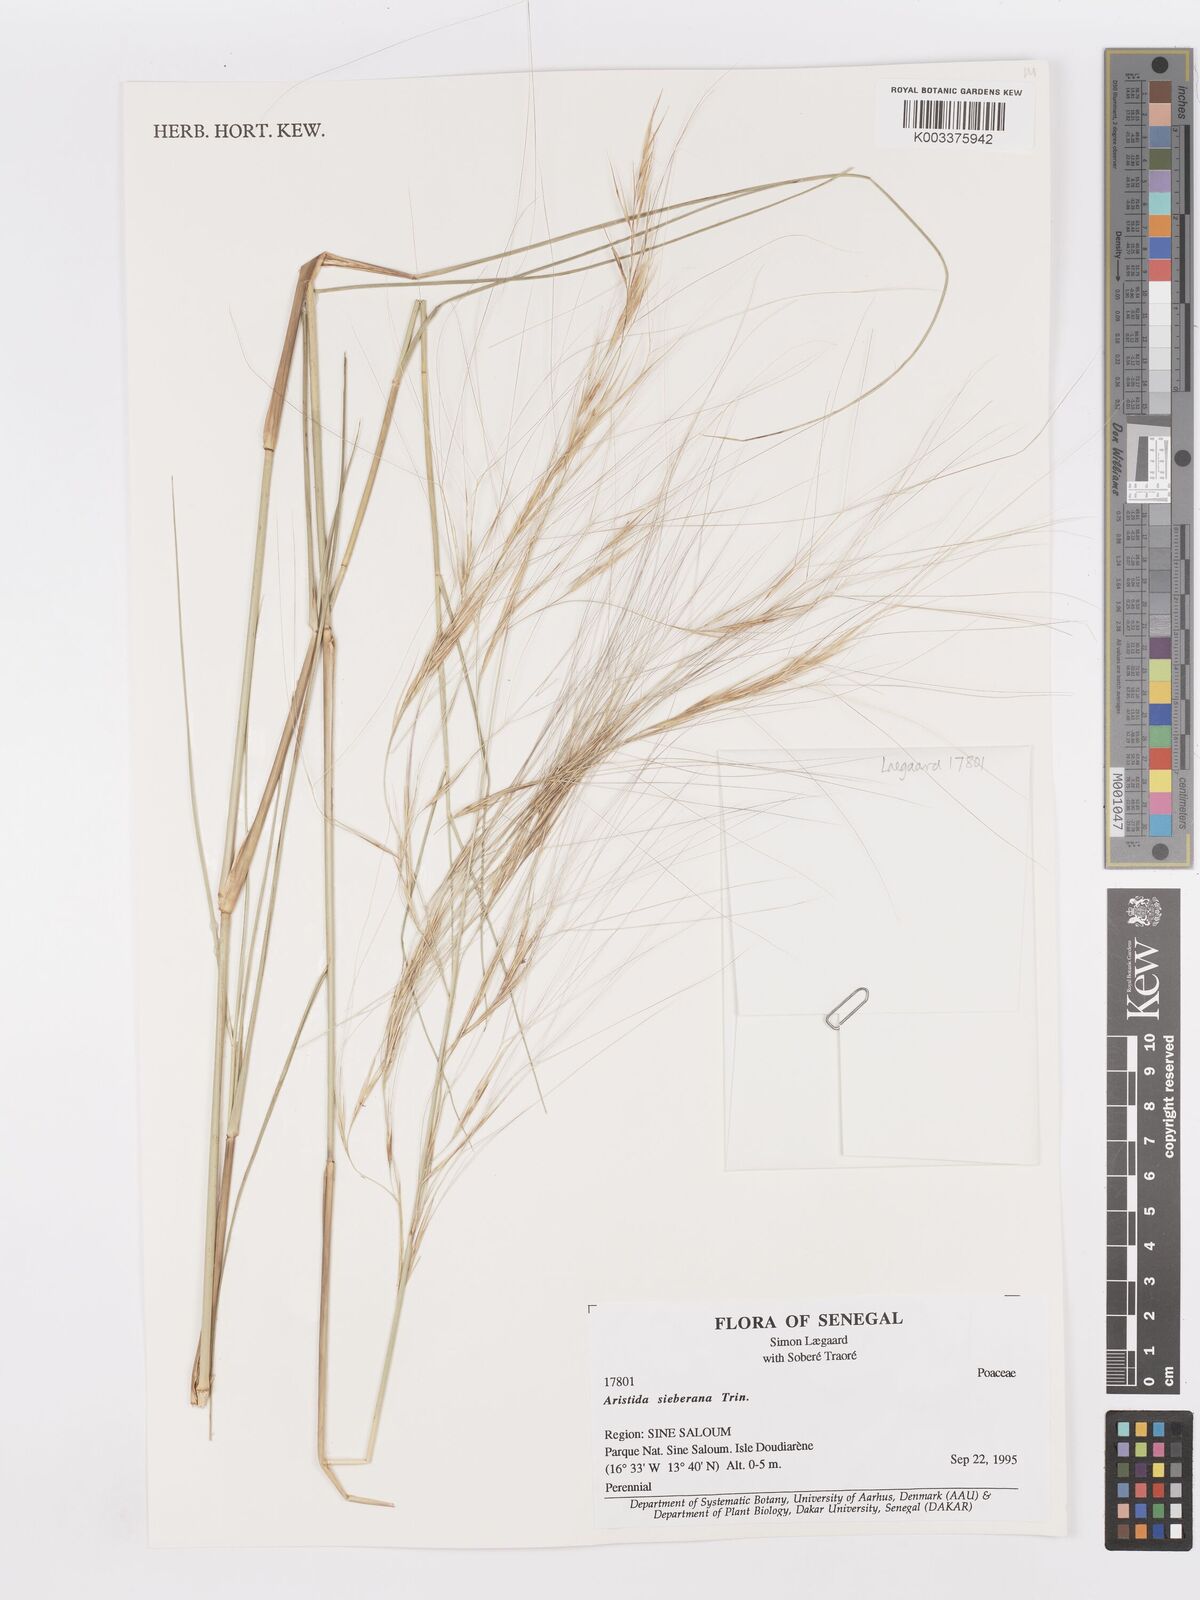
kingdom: Plantae
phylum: Tracheophyta
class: Liliopsida
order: Poales
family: Poaceae
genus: Aristida
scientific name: Aristida sieberiana
